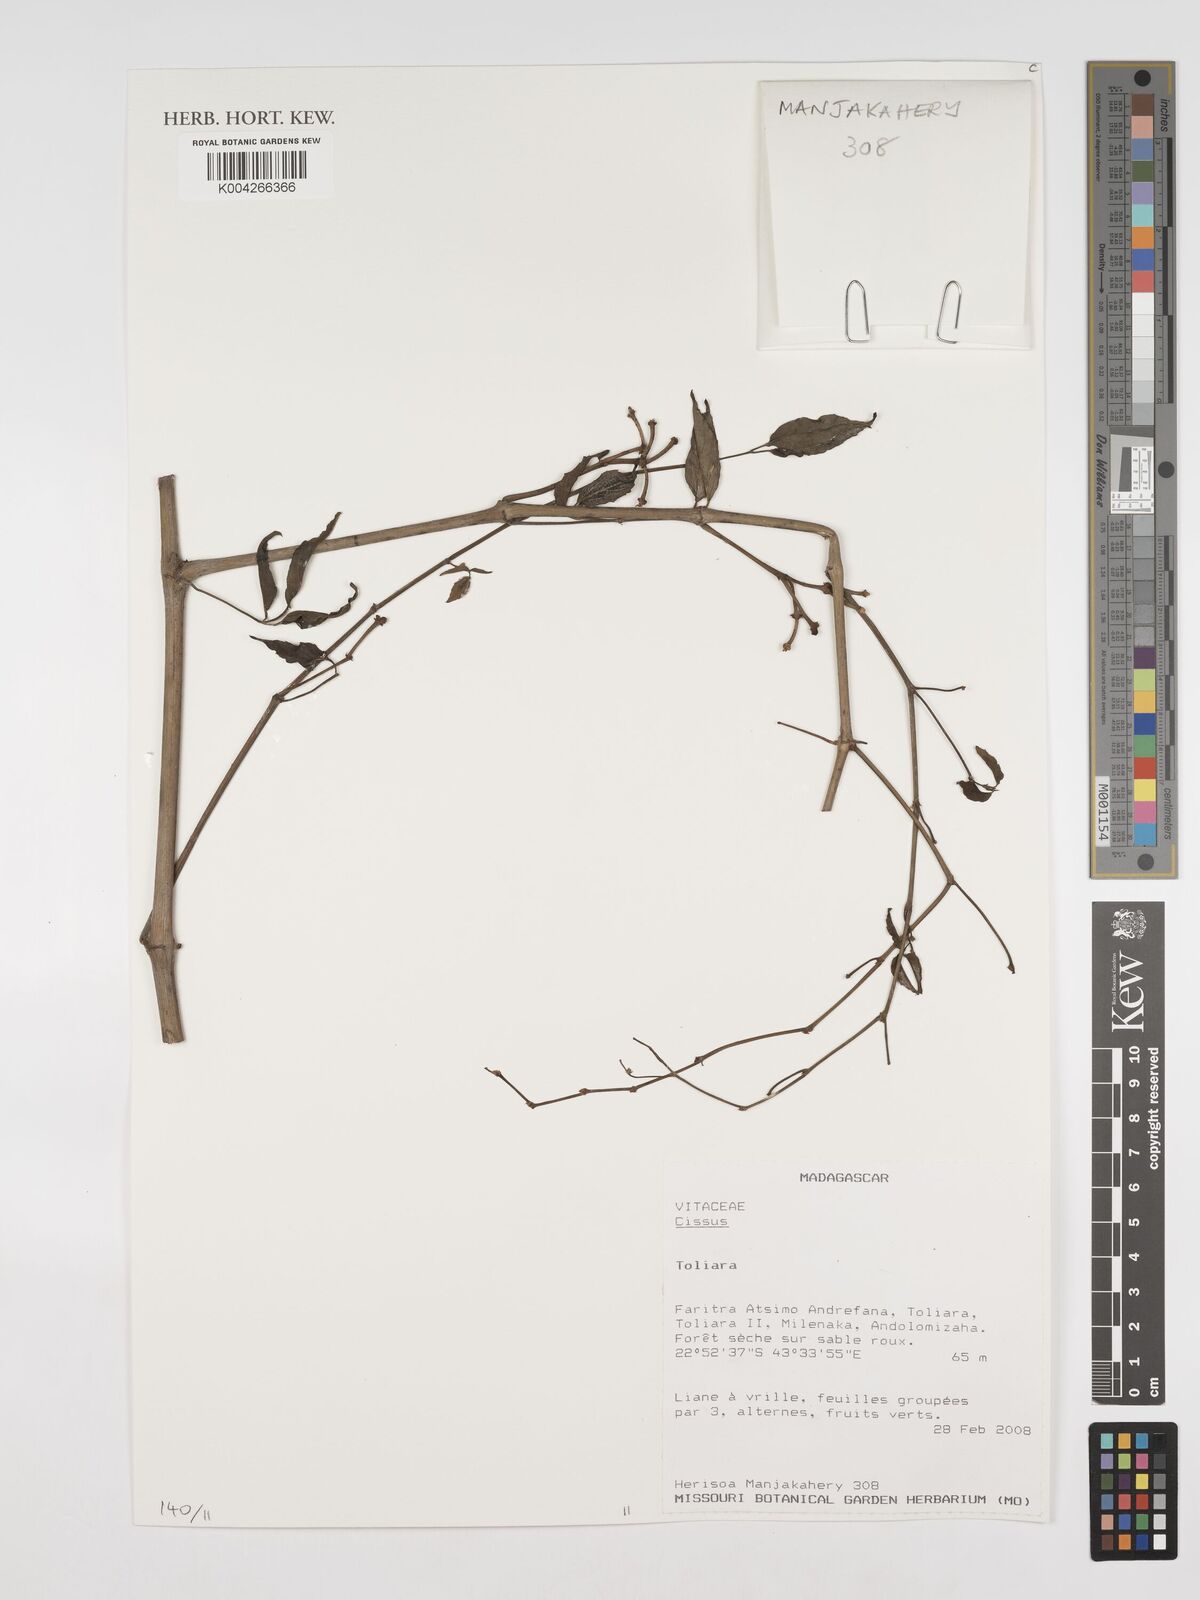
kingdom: Plantae
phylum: Tracheophyta
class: Magnoliopsida
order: Vitales
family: Vitaceae
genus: Cissus
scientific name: Cissus
